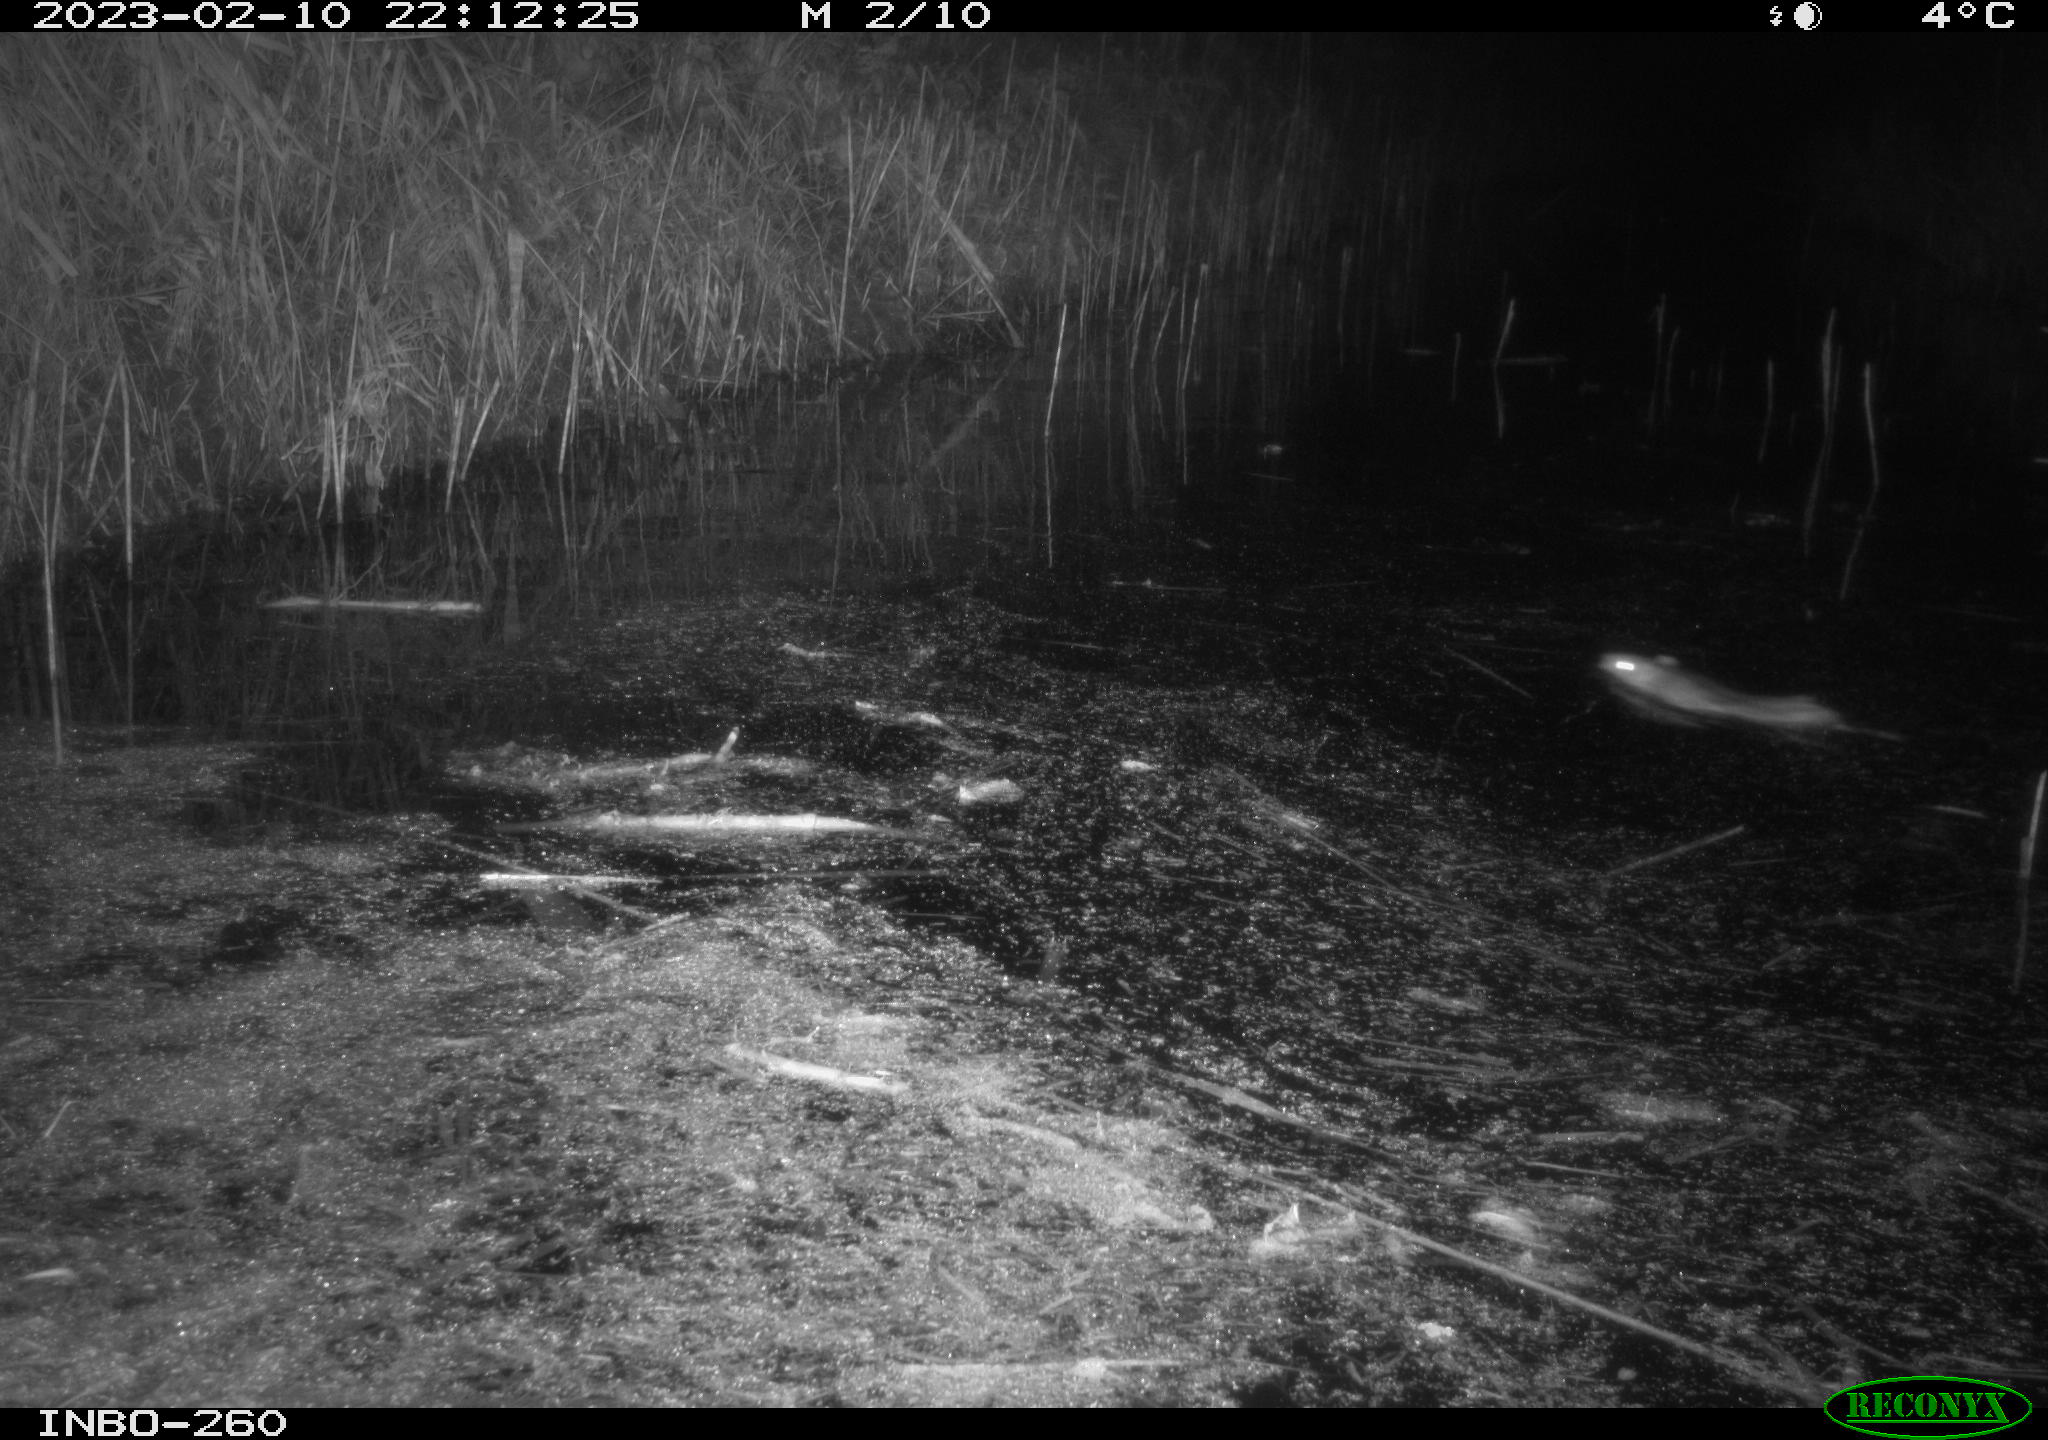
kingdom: Animalia
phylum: Chordata
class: Mammalia
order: Rodentia
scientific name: Rodentia
